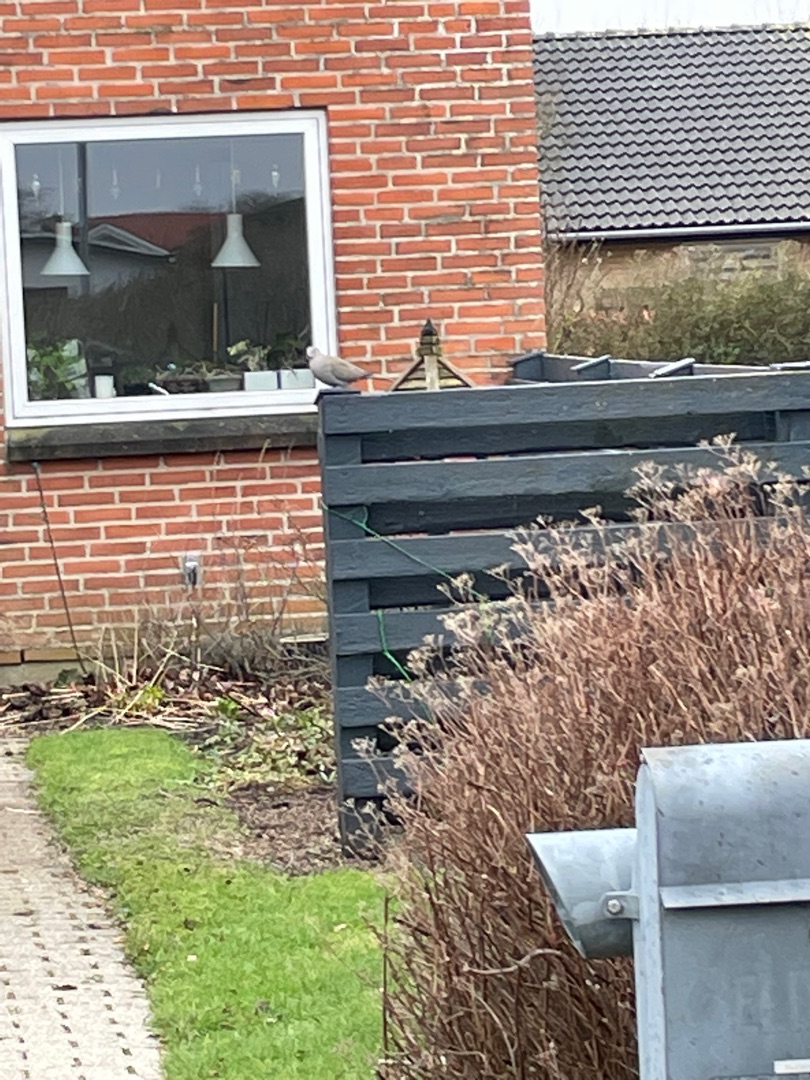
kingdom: Animalia
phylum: Chordata
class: Aves
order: Columbiformes
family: Columbidae
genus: Streptopelia
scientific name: Streptopelia decaocto
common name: Tyrkerdue
